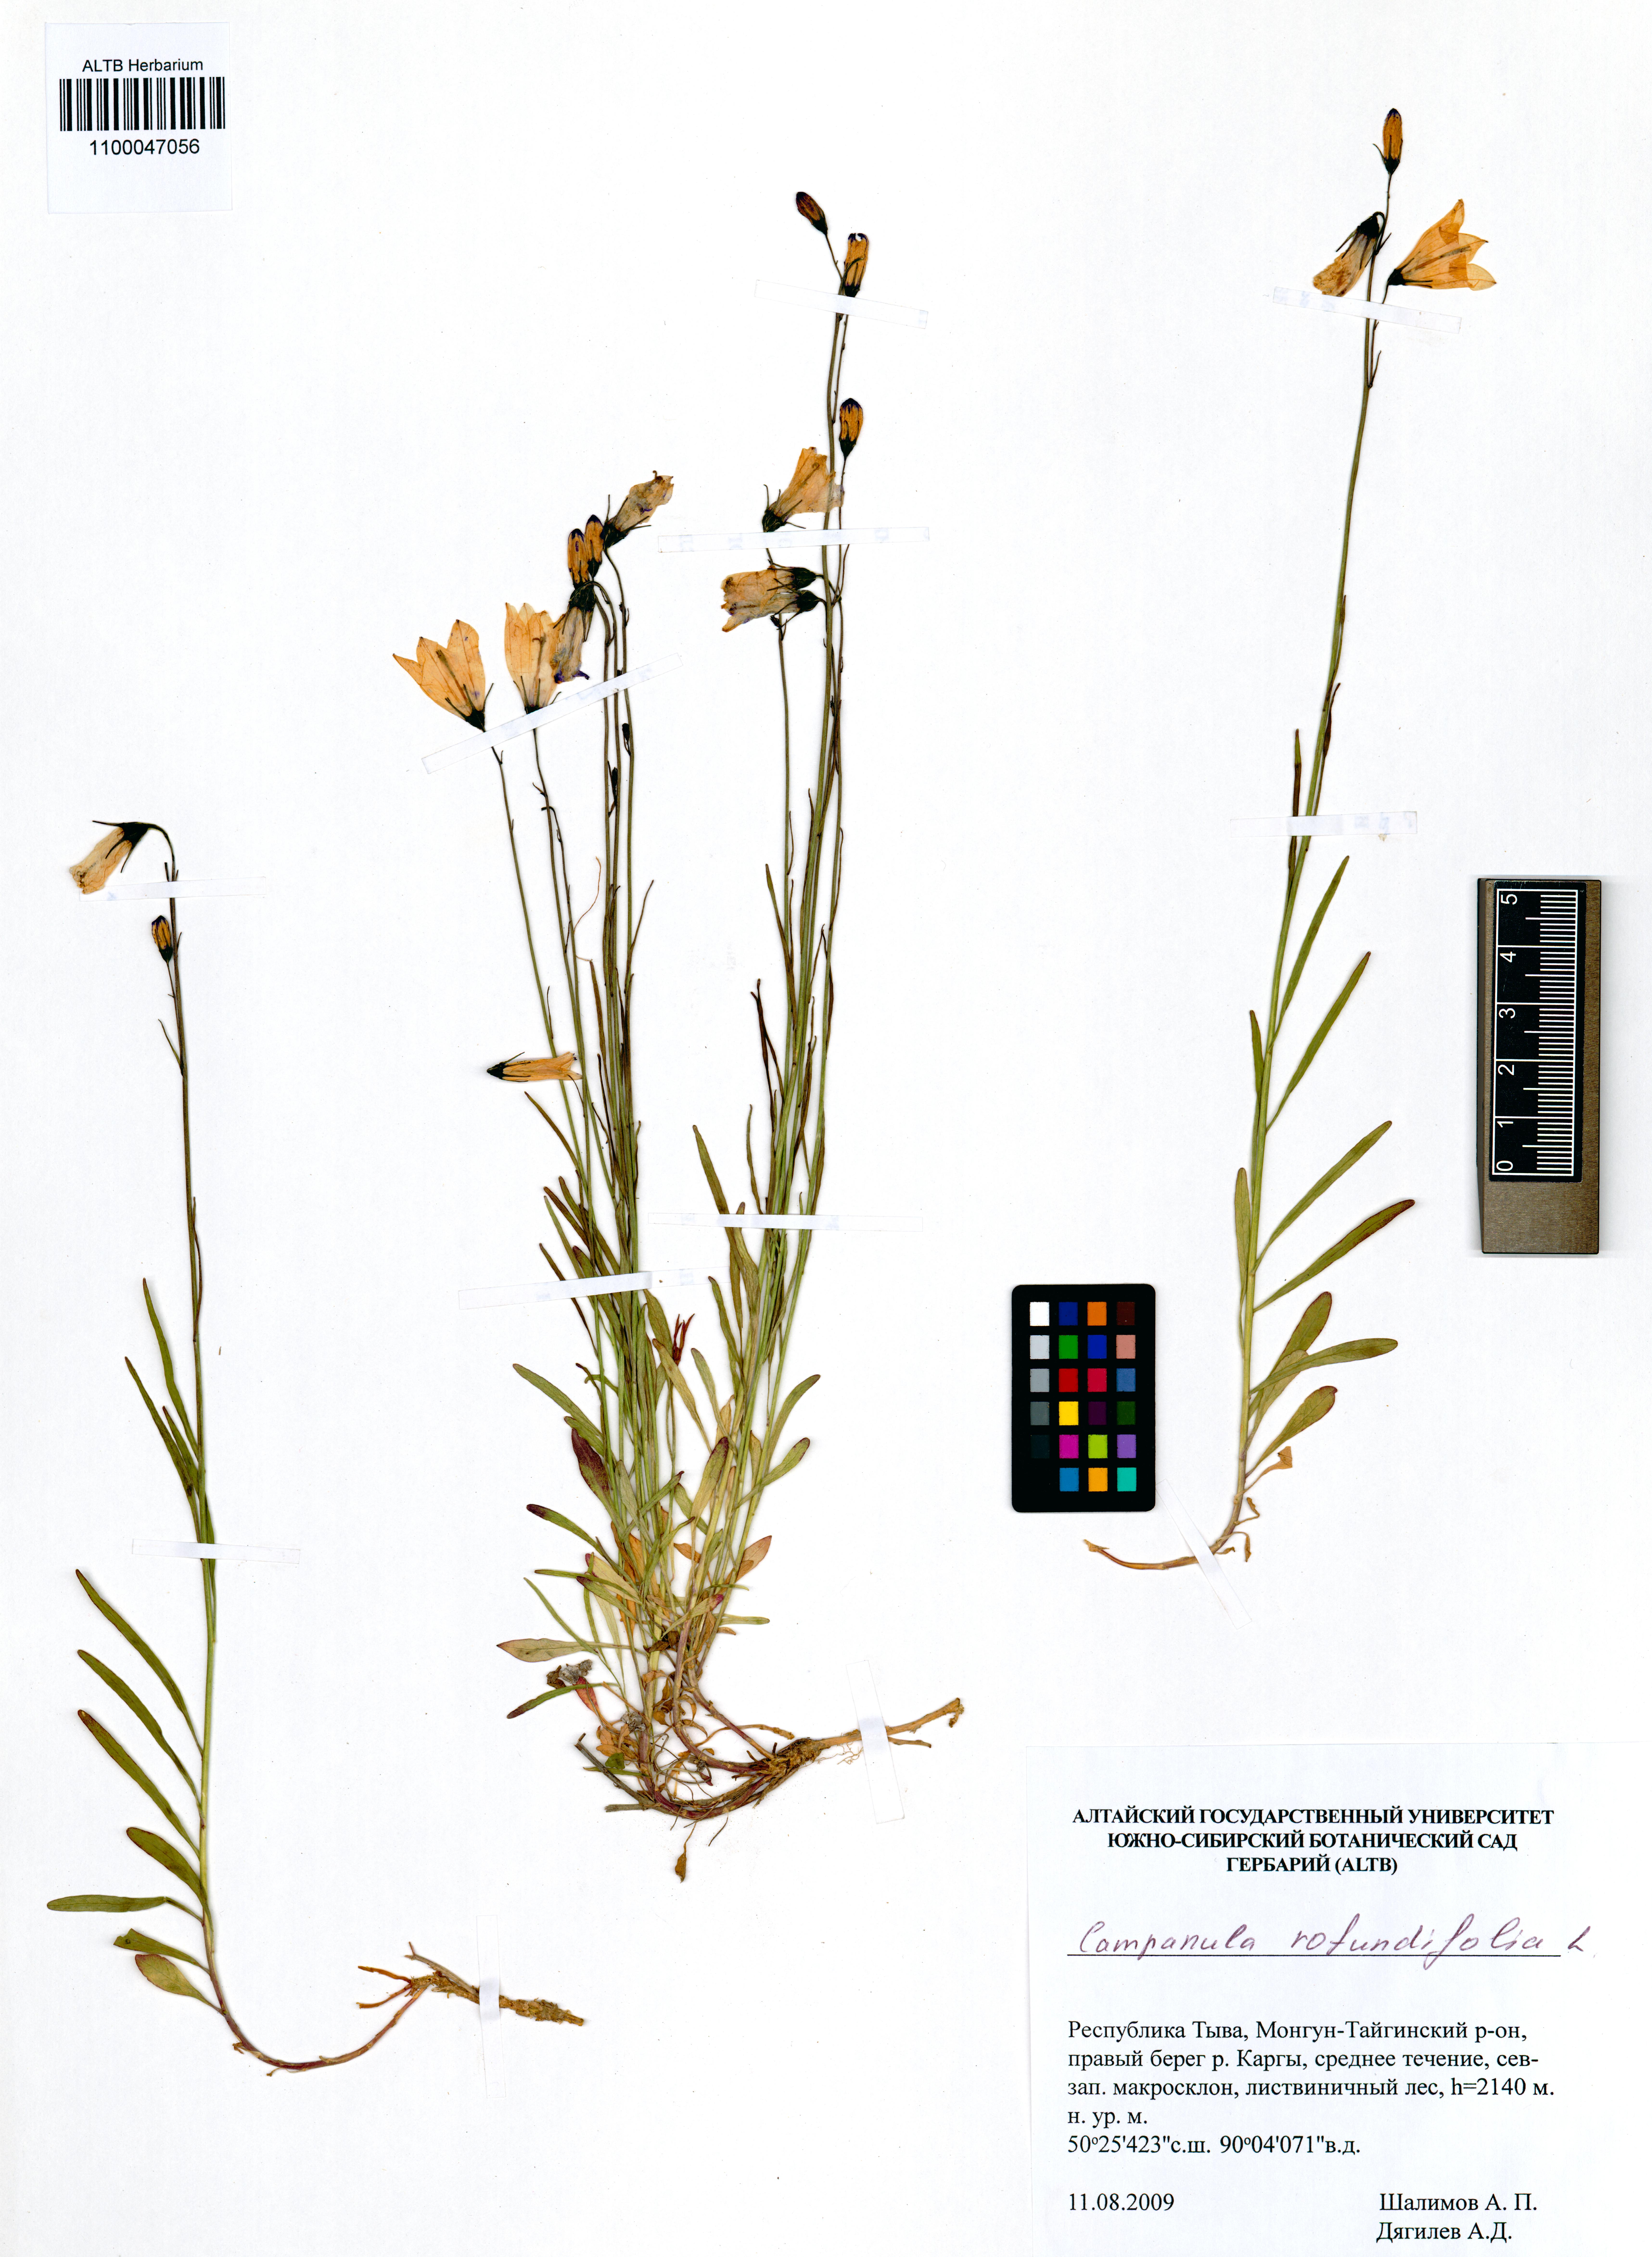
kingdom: Plantae
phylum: Tracheophyta
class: Magnoliopsida
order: Asterales
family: Campanulaceae
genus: Campanula
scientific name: Campanula rotundifolia
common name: Harebell
